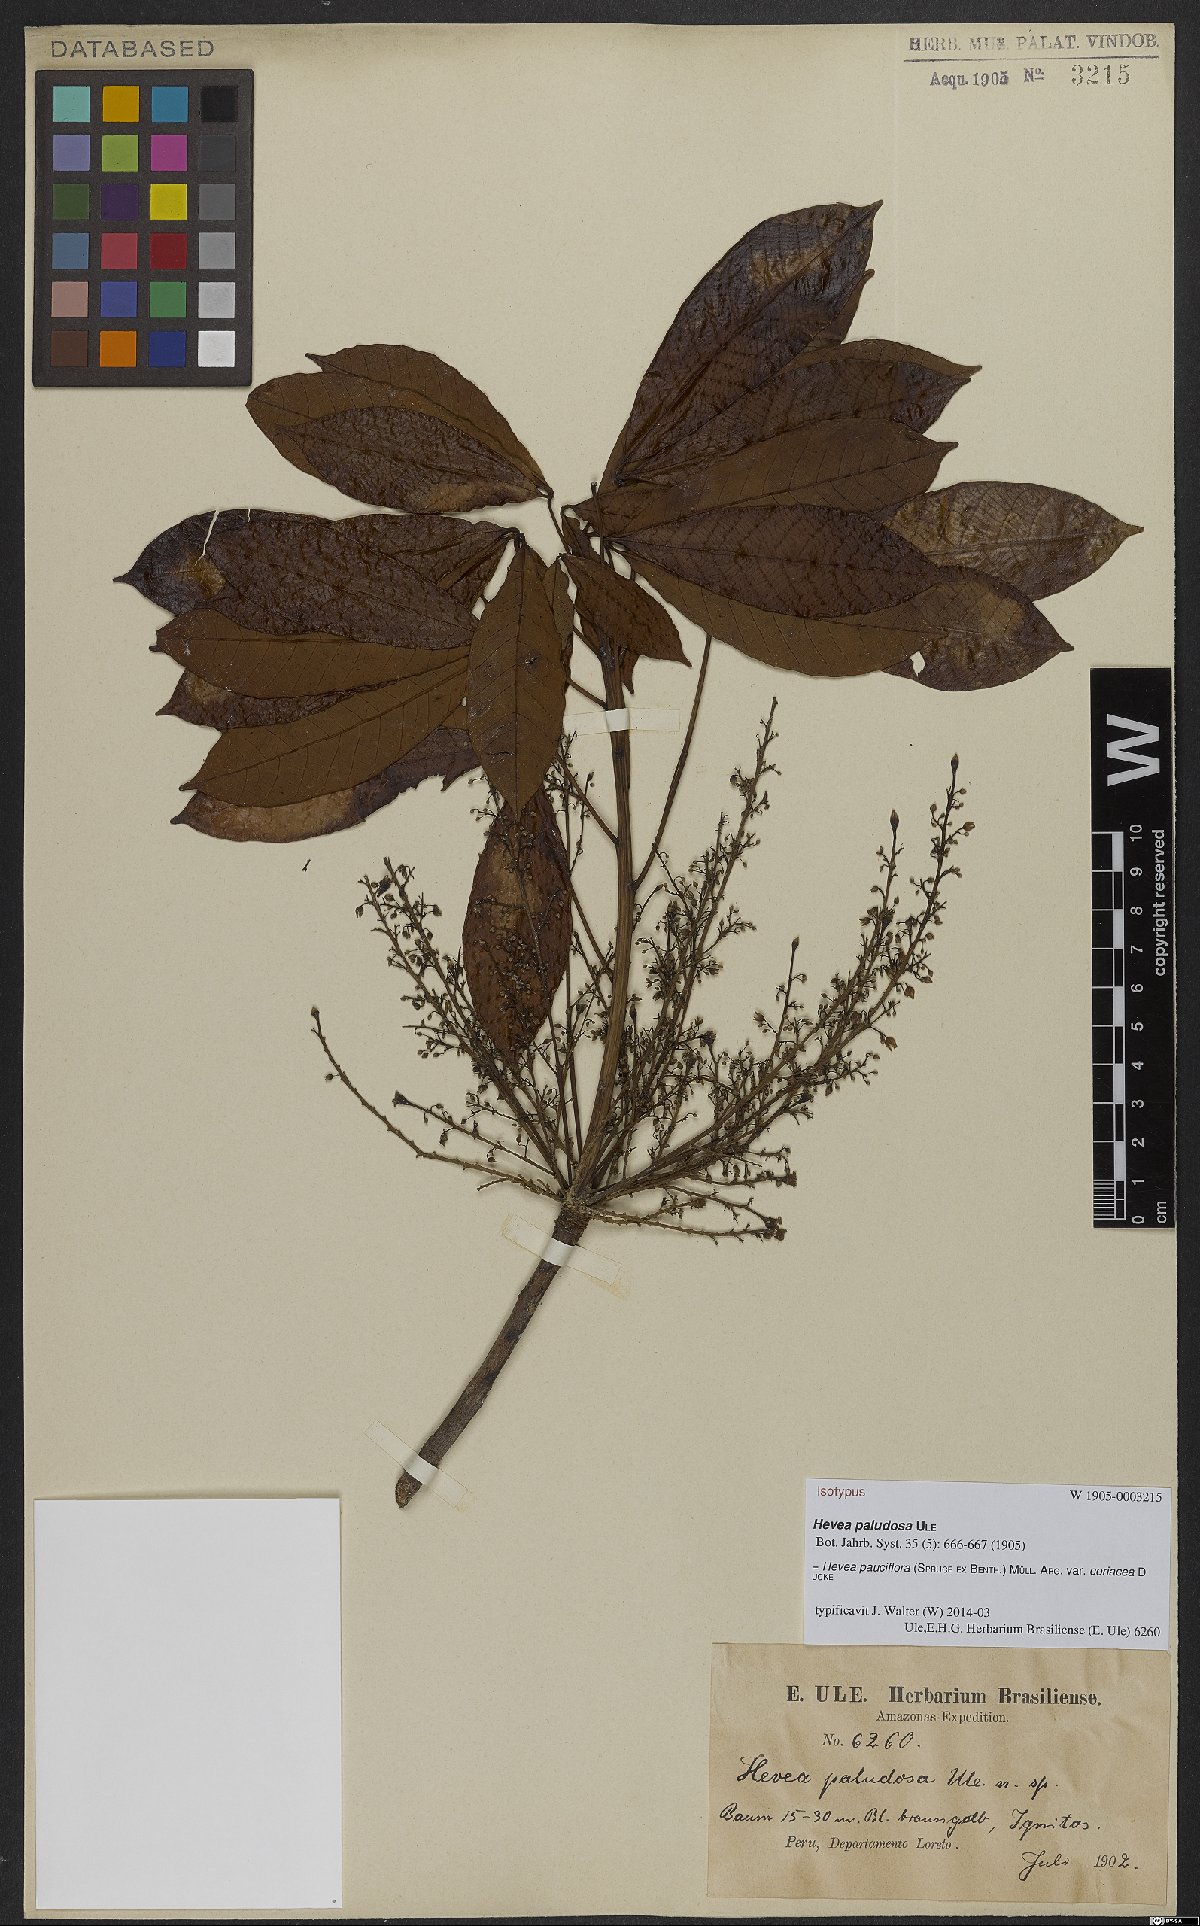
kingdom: Plantae
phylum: Tracheophyta
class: Magnoliopsida
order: Malpighiales
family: Euphorbiaceae
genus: Hevea
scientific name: Hevea pauciflora
